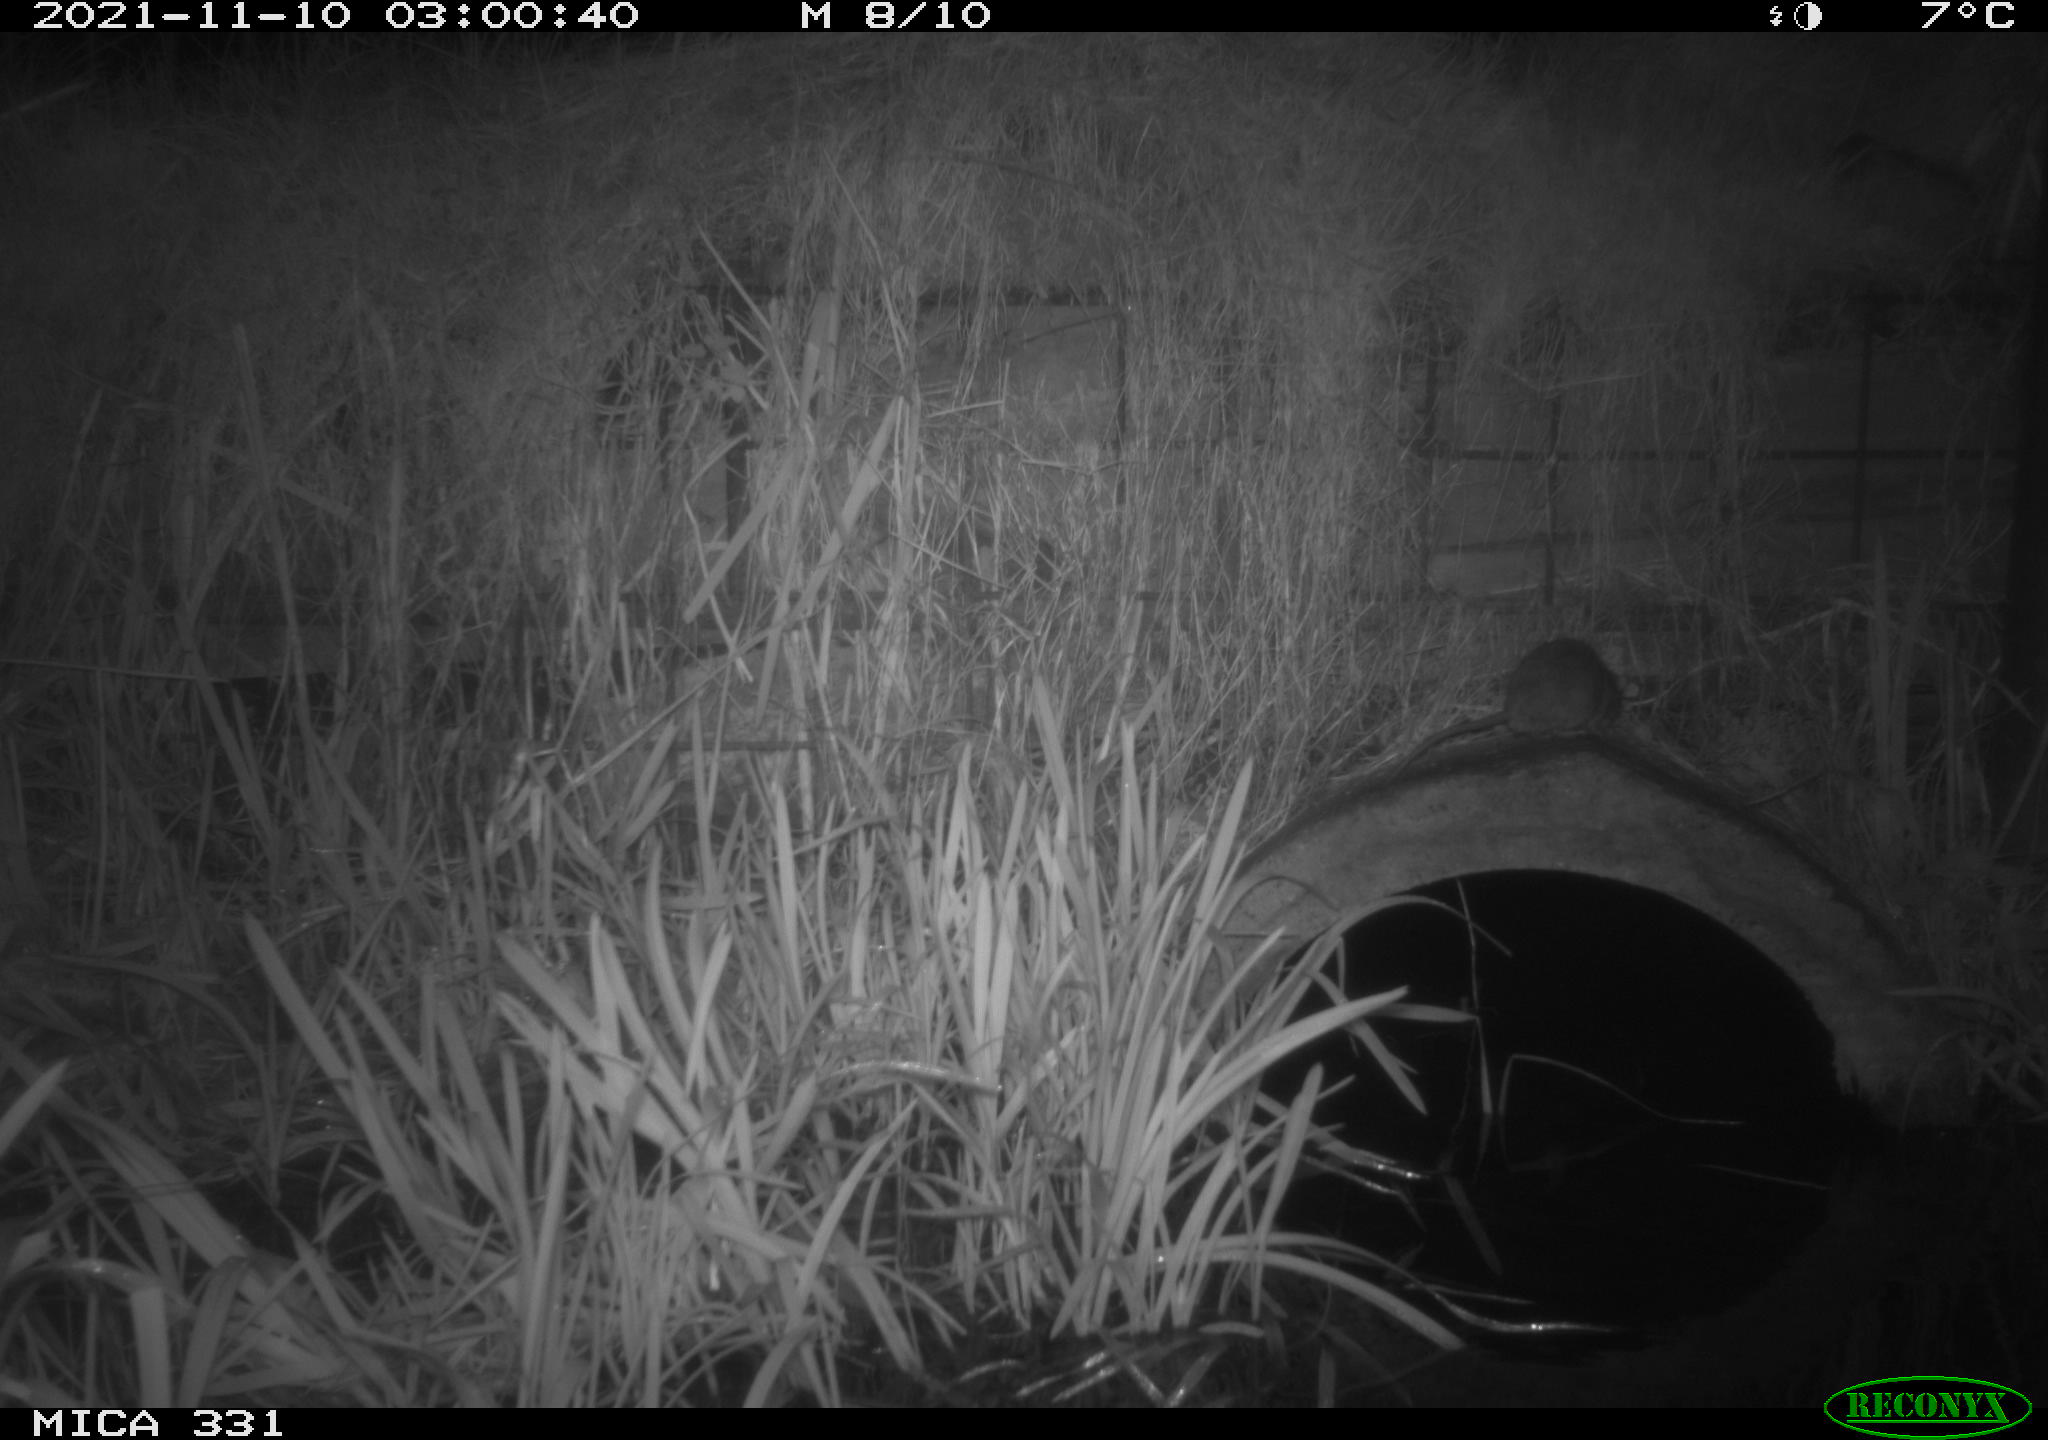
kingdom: Animalia
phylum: Chordata
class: Mammalia
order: Rodentia
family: Muridae
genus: Rattus
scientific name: Rattus norvegicus
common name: Brown rat
